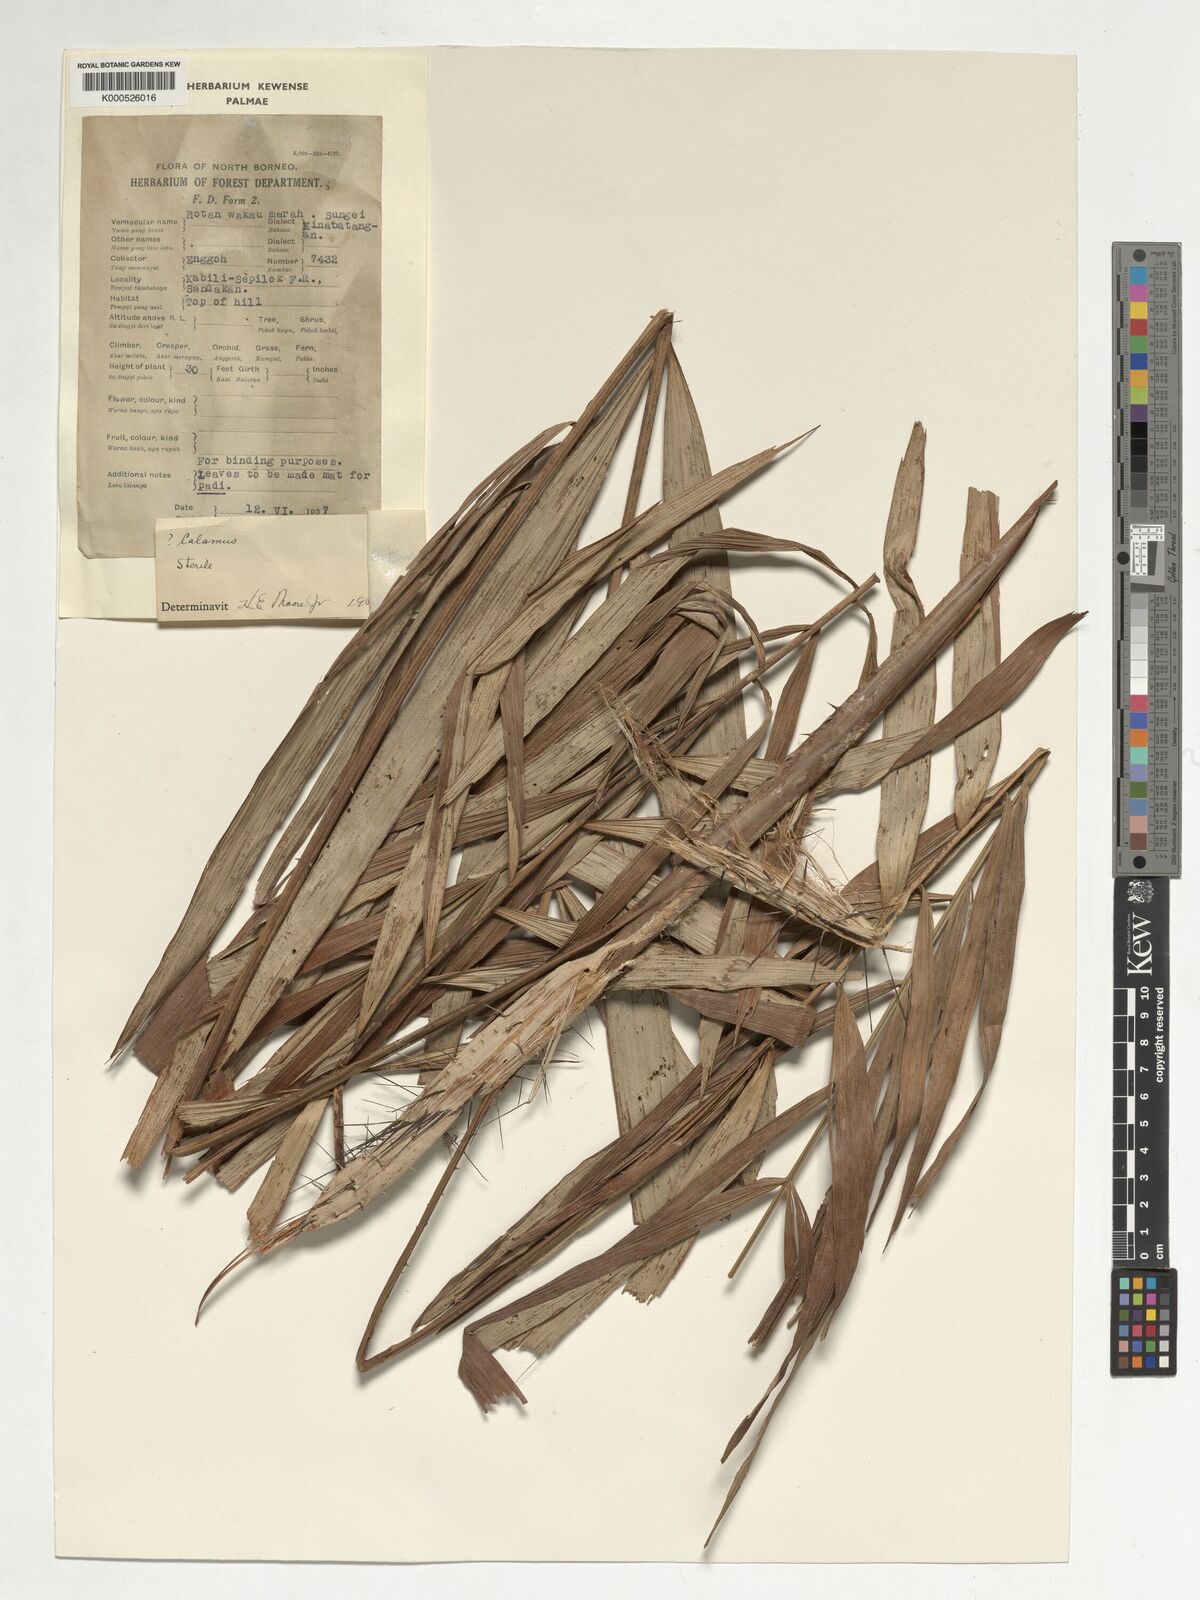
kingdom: Plantae
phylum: Tracheophyta
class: Liliopsida
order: Arecales
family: Arecaceae
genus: Korthalsia
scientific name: Korthalsia echinometra
